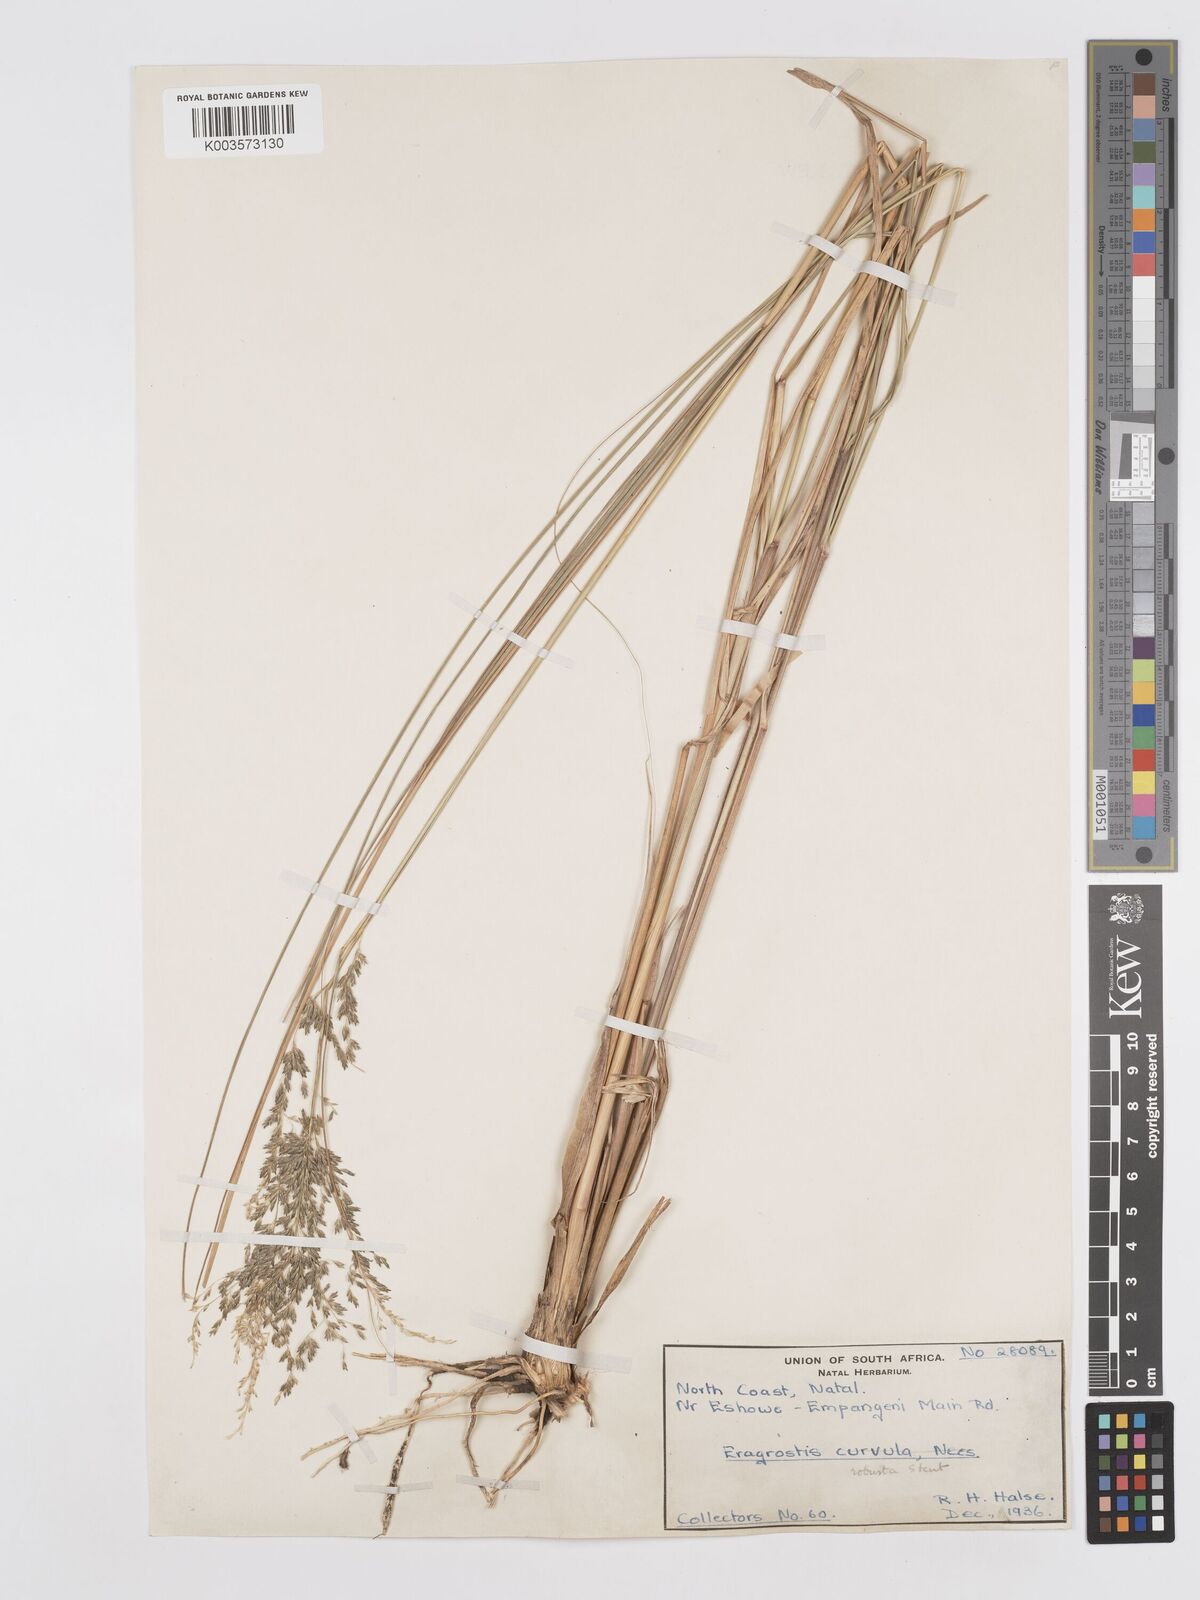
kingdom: Plantae
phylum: Tracheophyta
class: Liliopsida
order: Poales
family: Poaceae
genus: Eragrostis
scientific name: Eragrostis curvula
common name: African love-grass
